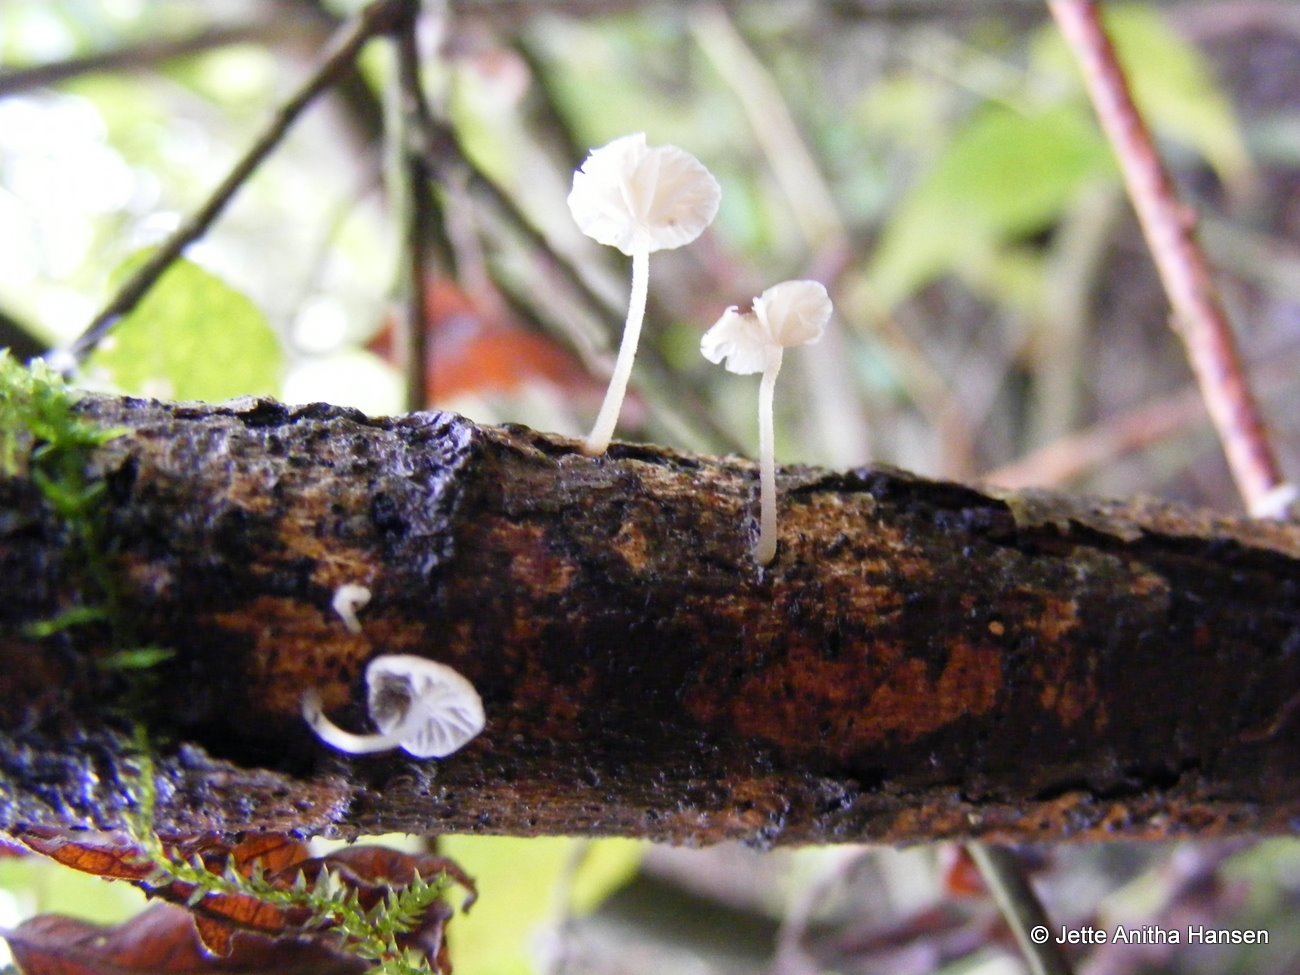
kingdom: Fungi
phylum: Basidiomycota
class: Agaricomycetes
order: Agaricales
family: Porotheleaceae
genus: Phloeomana
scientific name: Phloeomana speirea
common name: kvist-huesvamp
